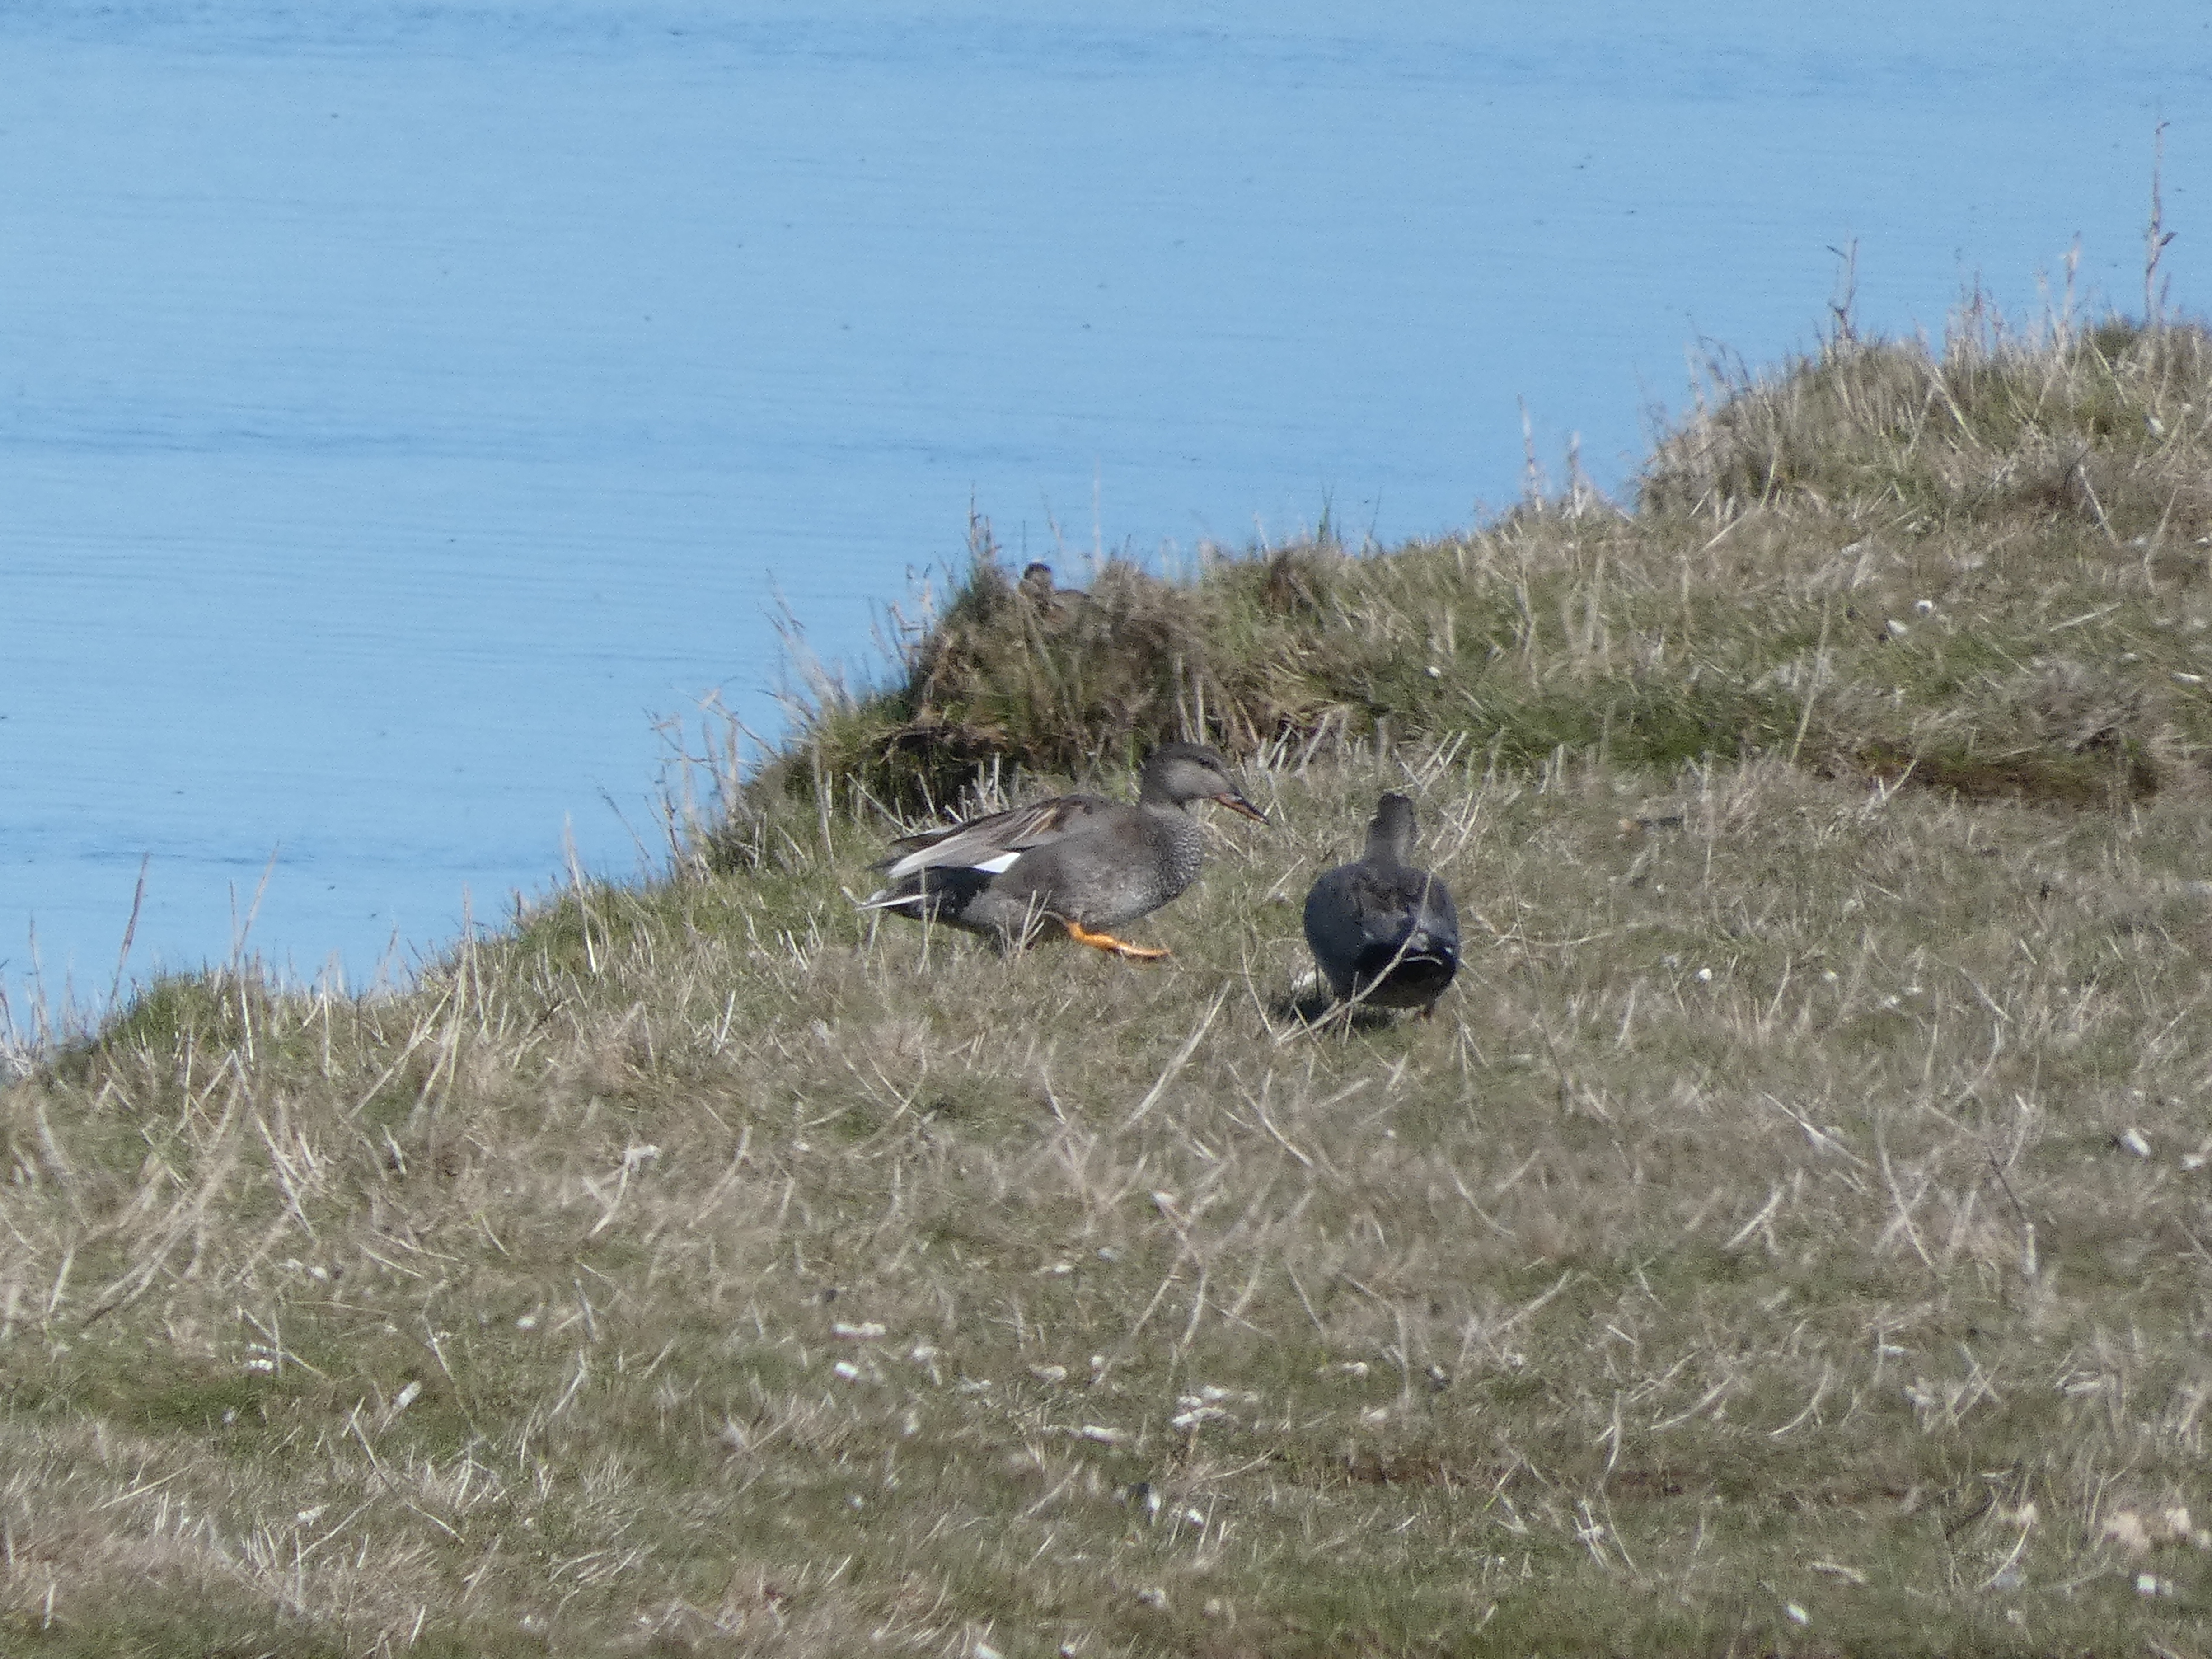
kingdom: Animalia
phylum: Chordata
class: Aves
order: Anseriformes
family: Anatidae
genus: Mareca
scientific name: Mareca strepera
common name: Knarand
